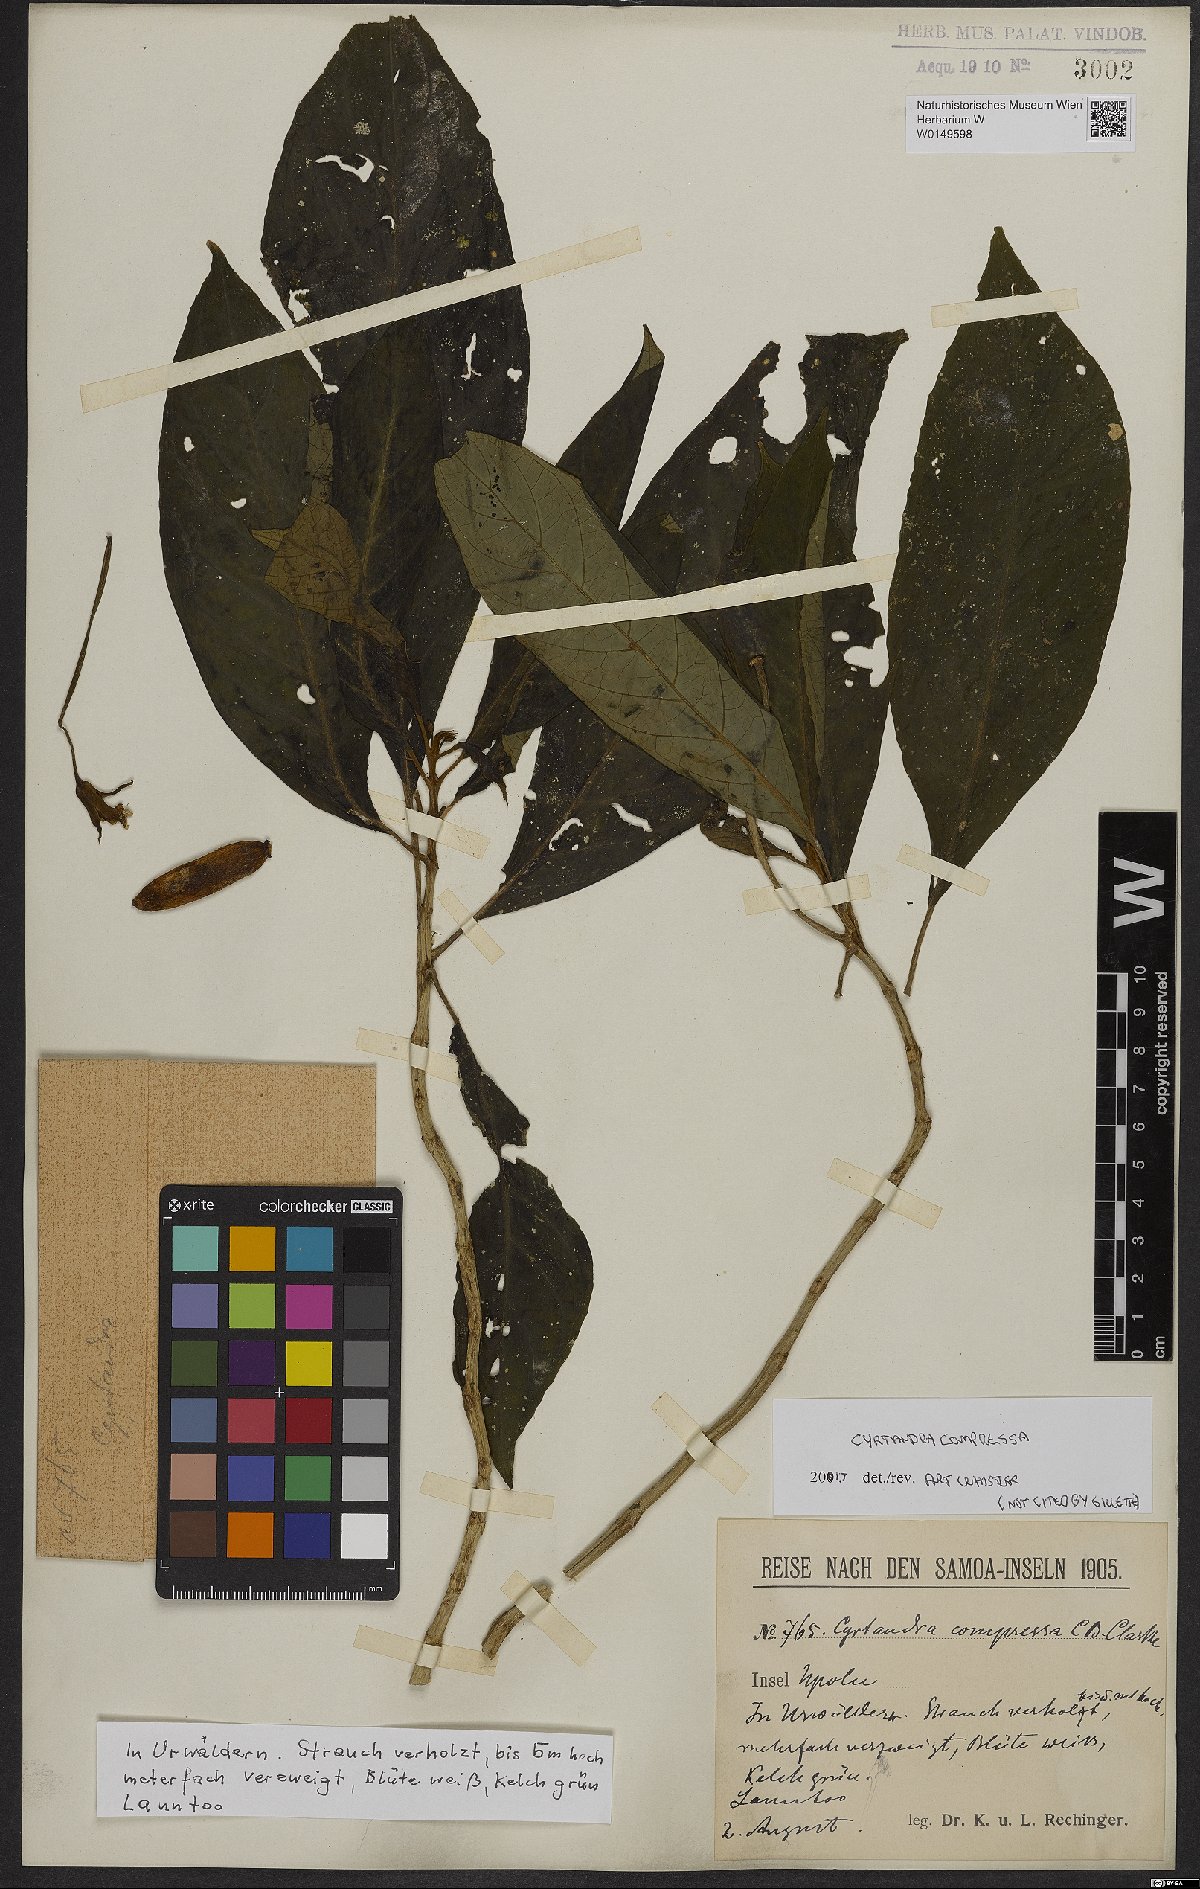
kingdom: Plantae
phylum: Tracheophyta
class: Magnoliopsida
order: Lamiales
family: Gesneriaceae
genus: Cyrtandra
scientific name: Cyrtandra compressa
